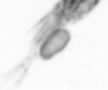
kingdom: Animalia
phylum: Arthropoda
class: Copepoda
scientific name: Copepoda
